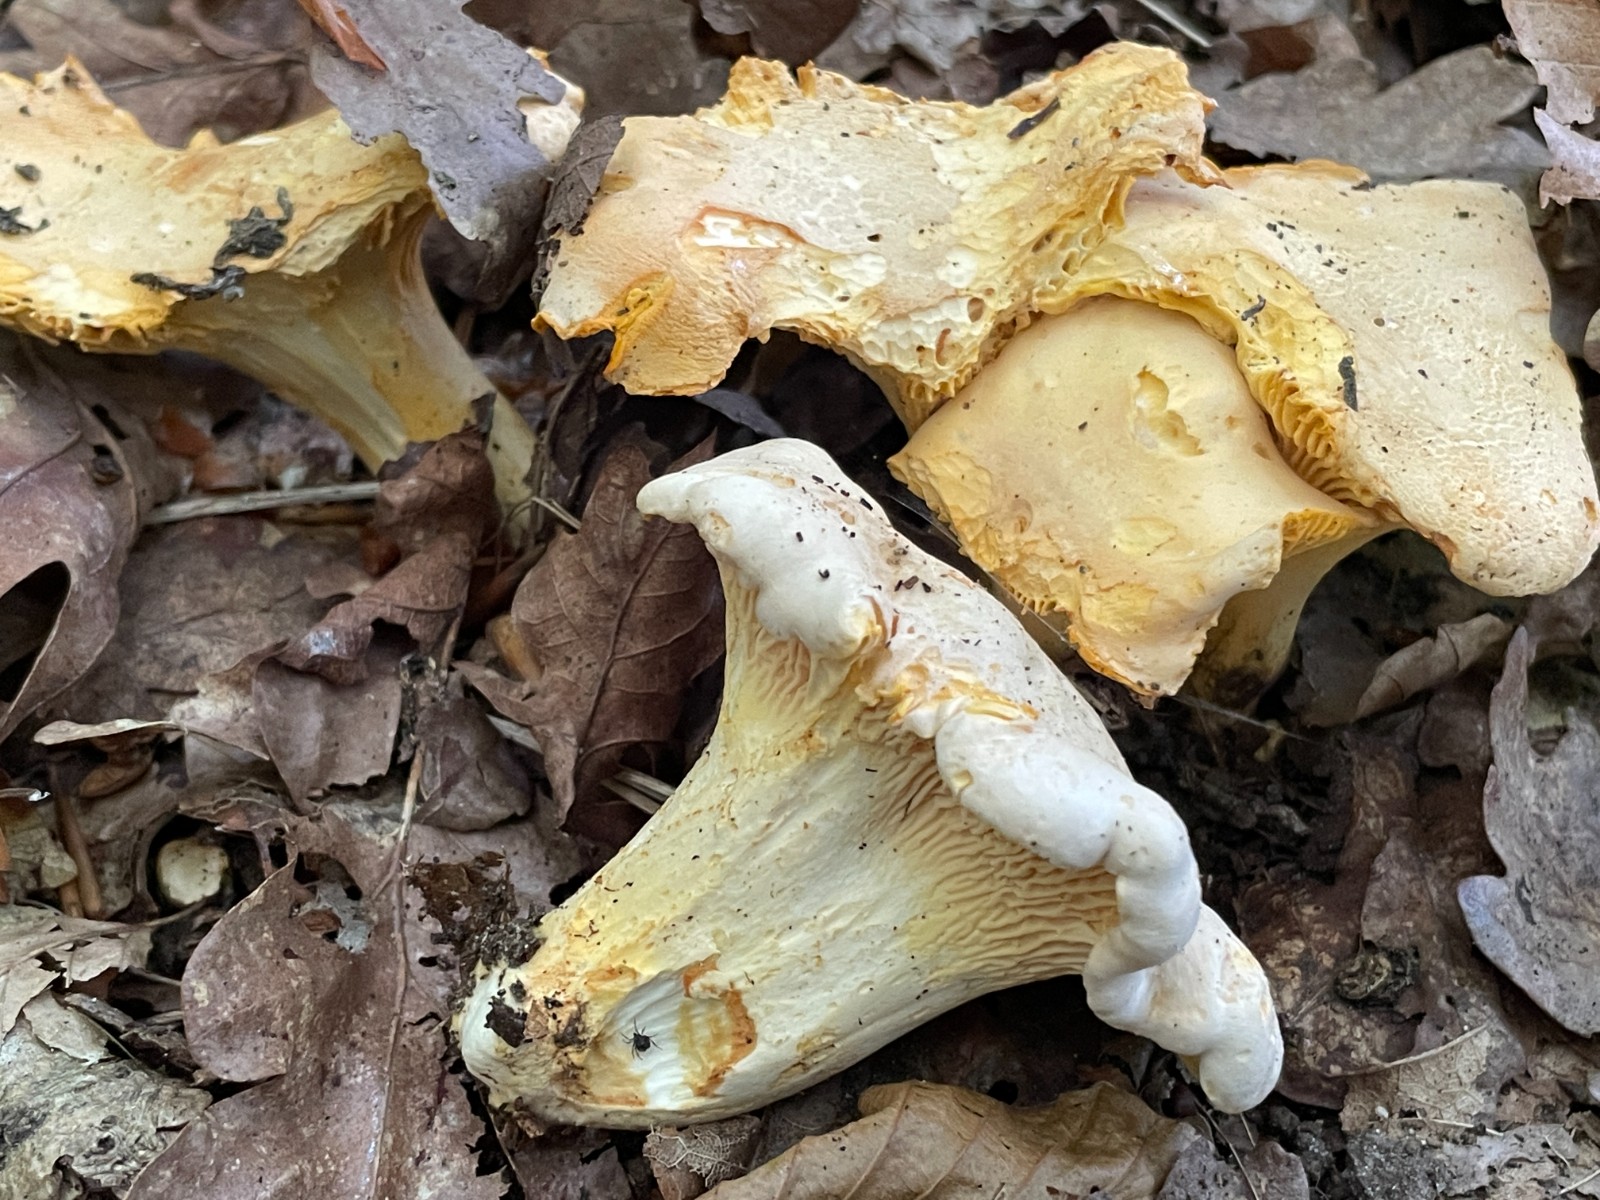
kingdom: Fungi
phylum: Basidiomycota
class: Agaricomycetes
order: Cantharellales
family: Hydnaceae
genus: Cantharellus
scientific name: Cantharellus pallens
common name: bleg kantarel
